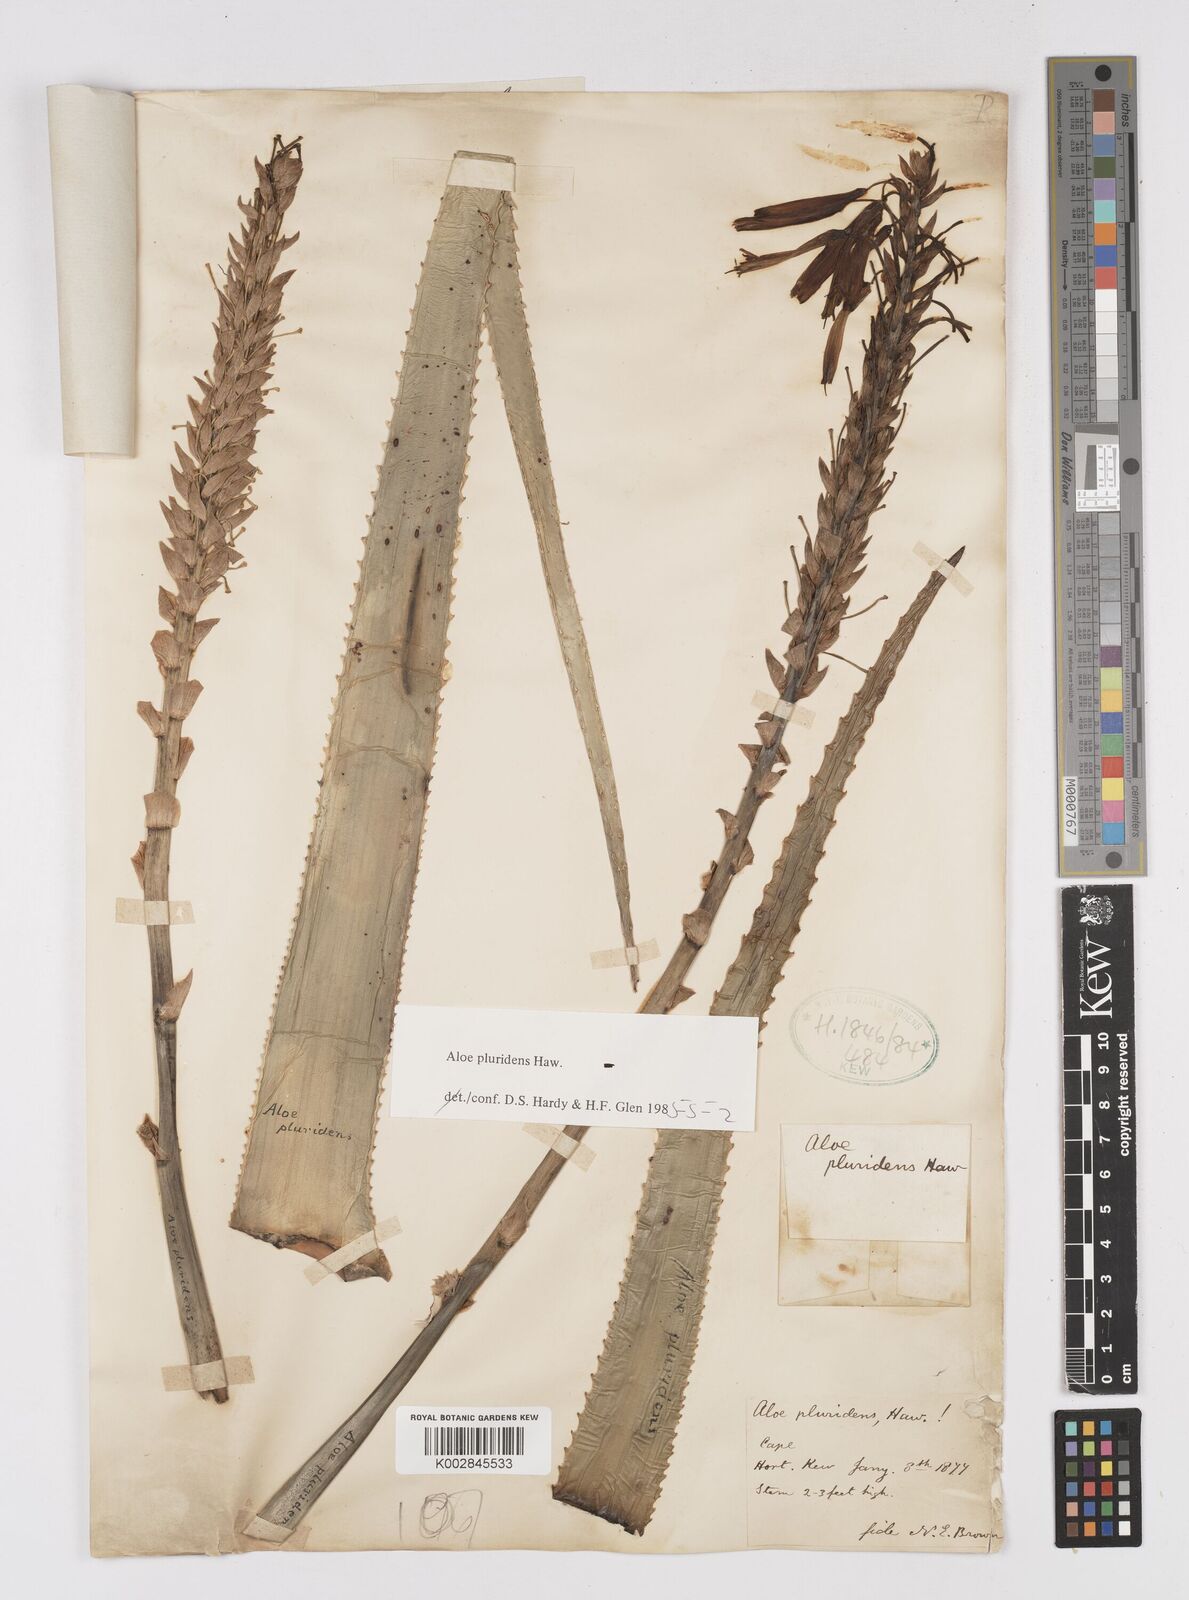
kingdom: Plantae
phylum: Tracheophyta
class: Liliopsida
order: Asparagales
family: Asphodelaceae
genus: Aloe
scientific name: Aloe pluridens
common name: French aloe
